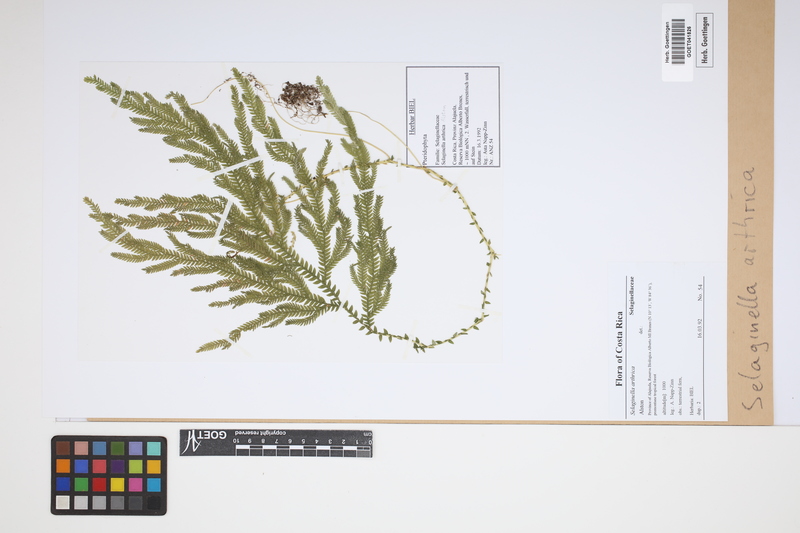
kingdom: Plantae
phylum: Tracheophyta
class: Lycopodiopsida
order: Selaginellales
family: Selaginellaceae
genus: Selaginella
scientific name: Selaginella
